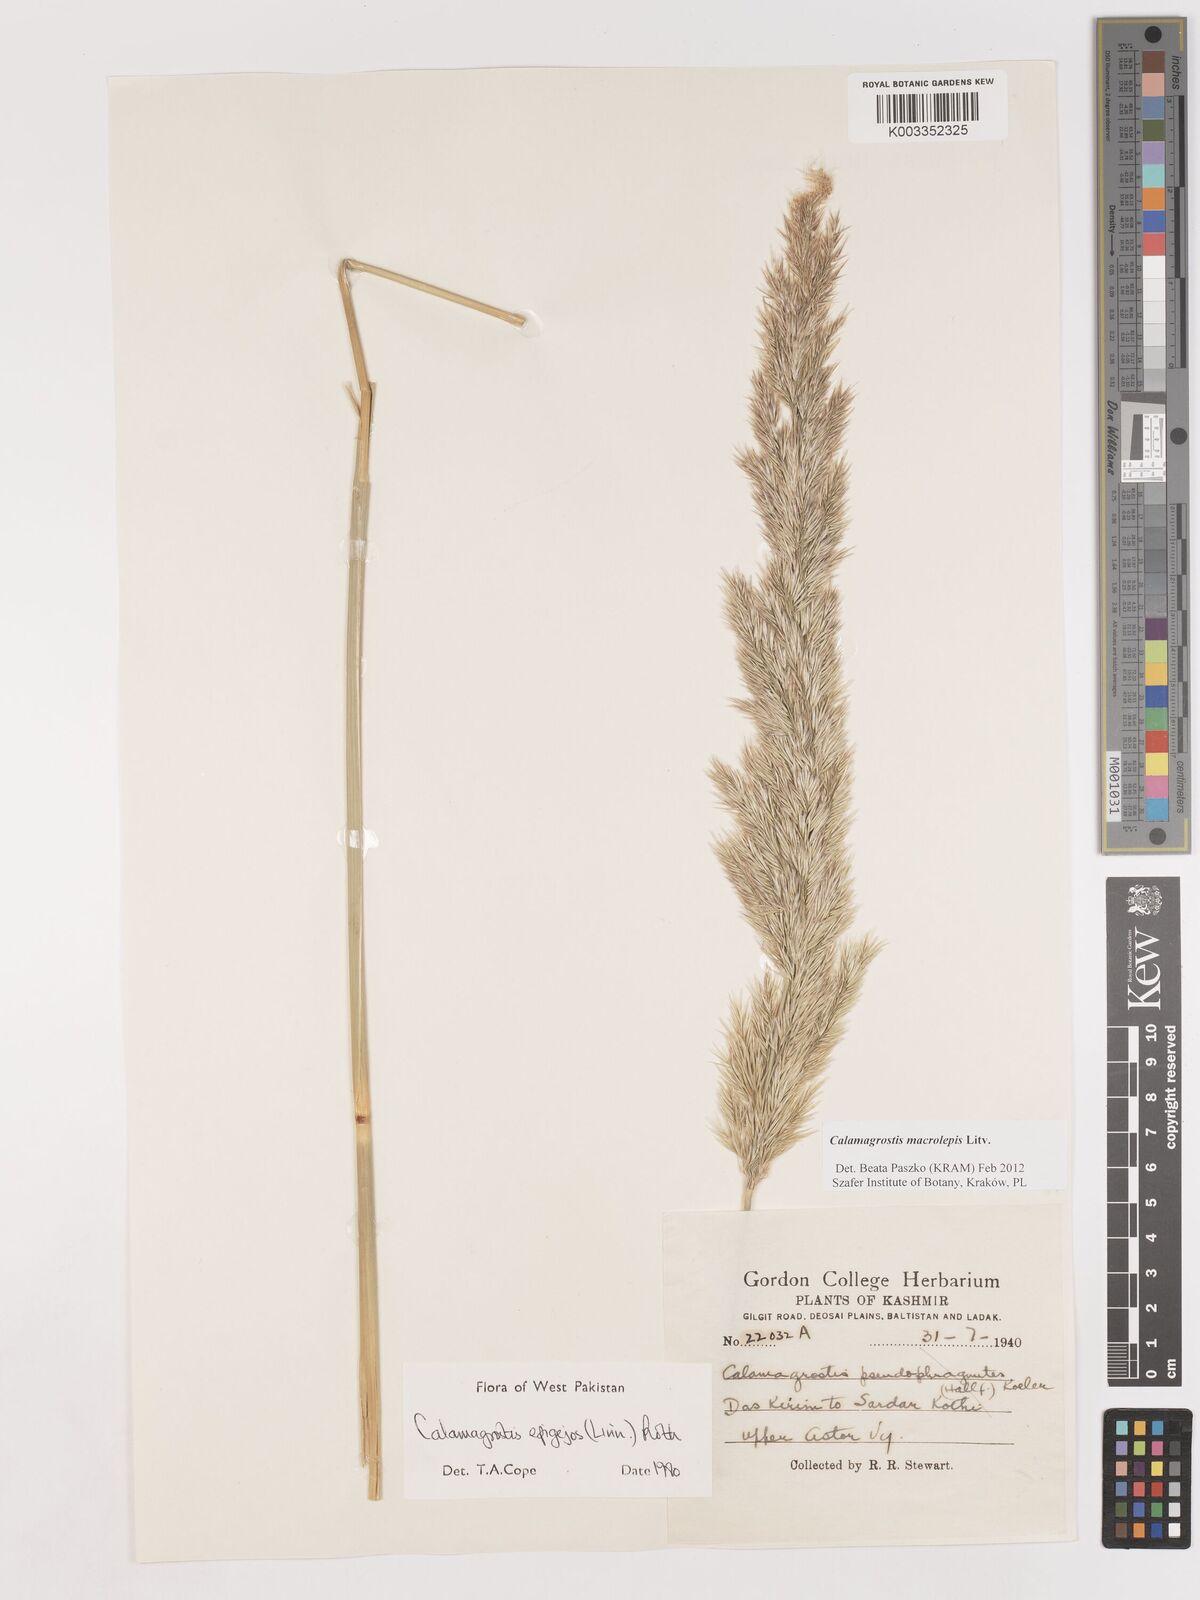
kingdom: Plantae
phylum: Tracheophyta
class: Liliopsida
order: Poales
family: Poaceae
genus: Calamagrostis
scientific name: Calamagrostis epigejos
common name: Wood small-reed
